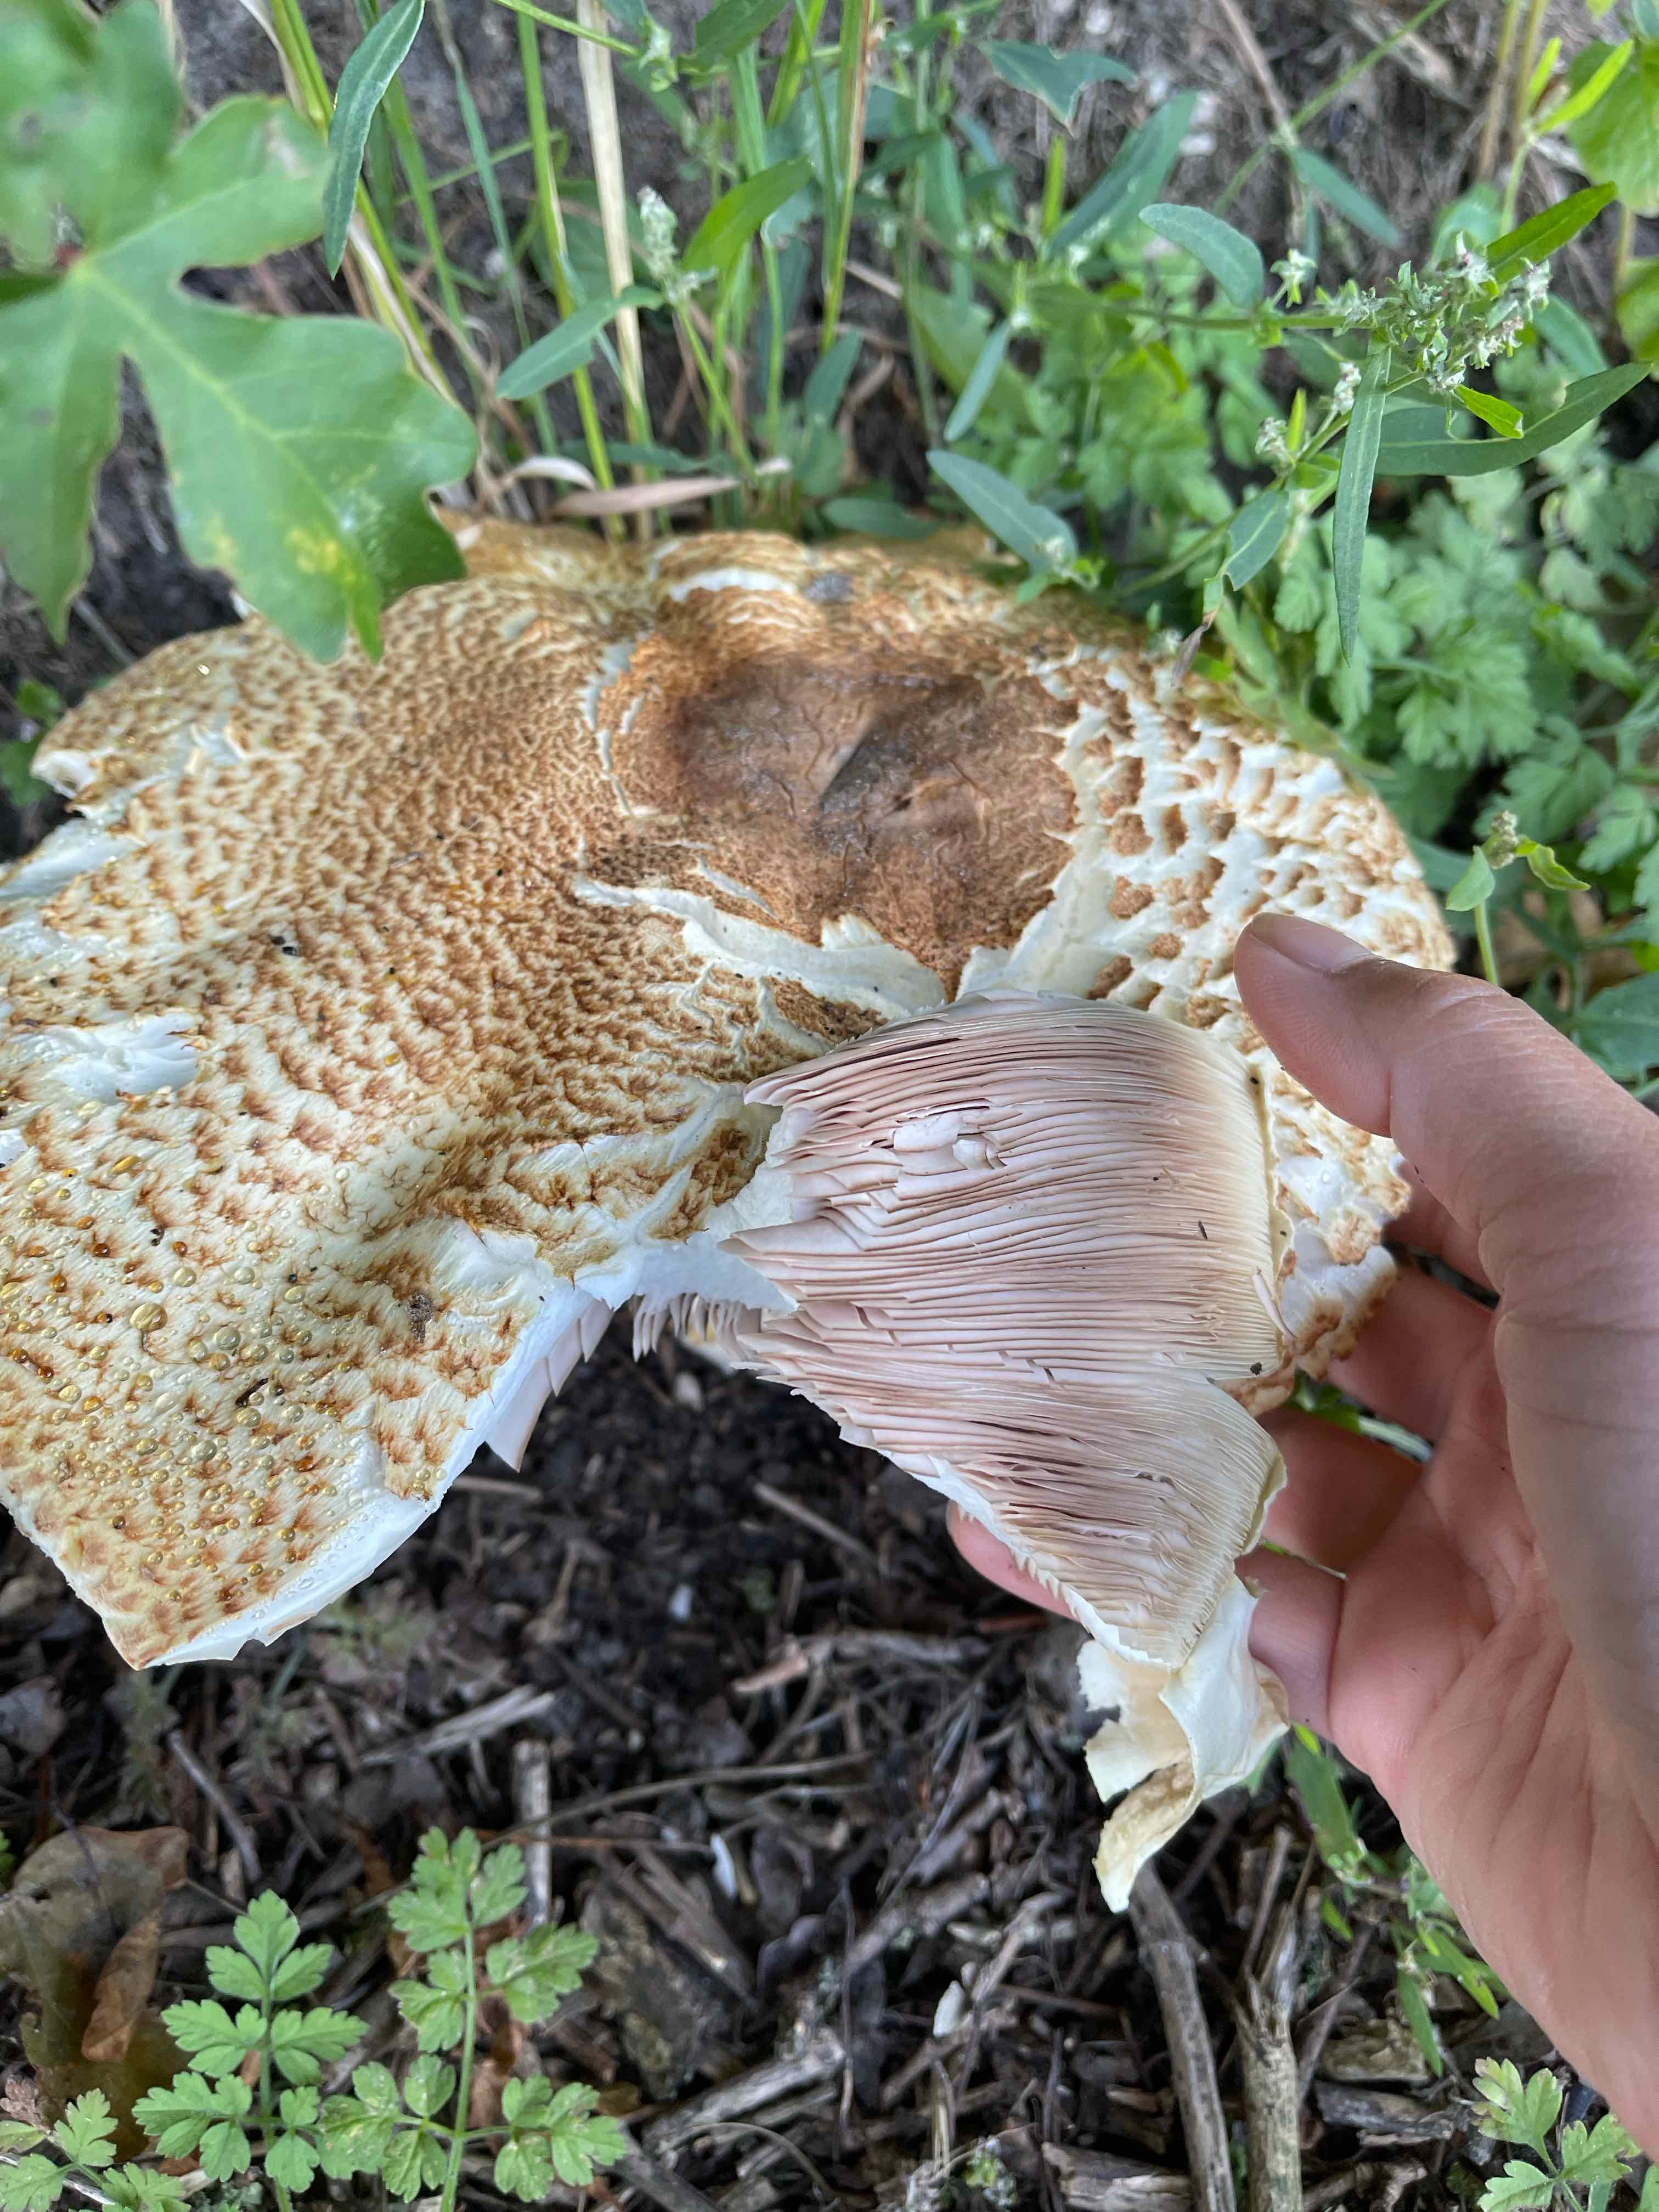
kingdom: Fungi
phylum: Basidiomycota
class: Agaricomycetes
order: Agaricales
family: Agaricaceae
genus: Agaricus
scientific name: Agaricus augustus
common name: prægtig champignon
